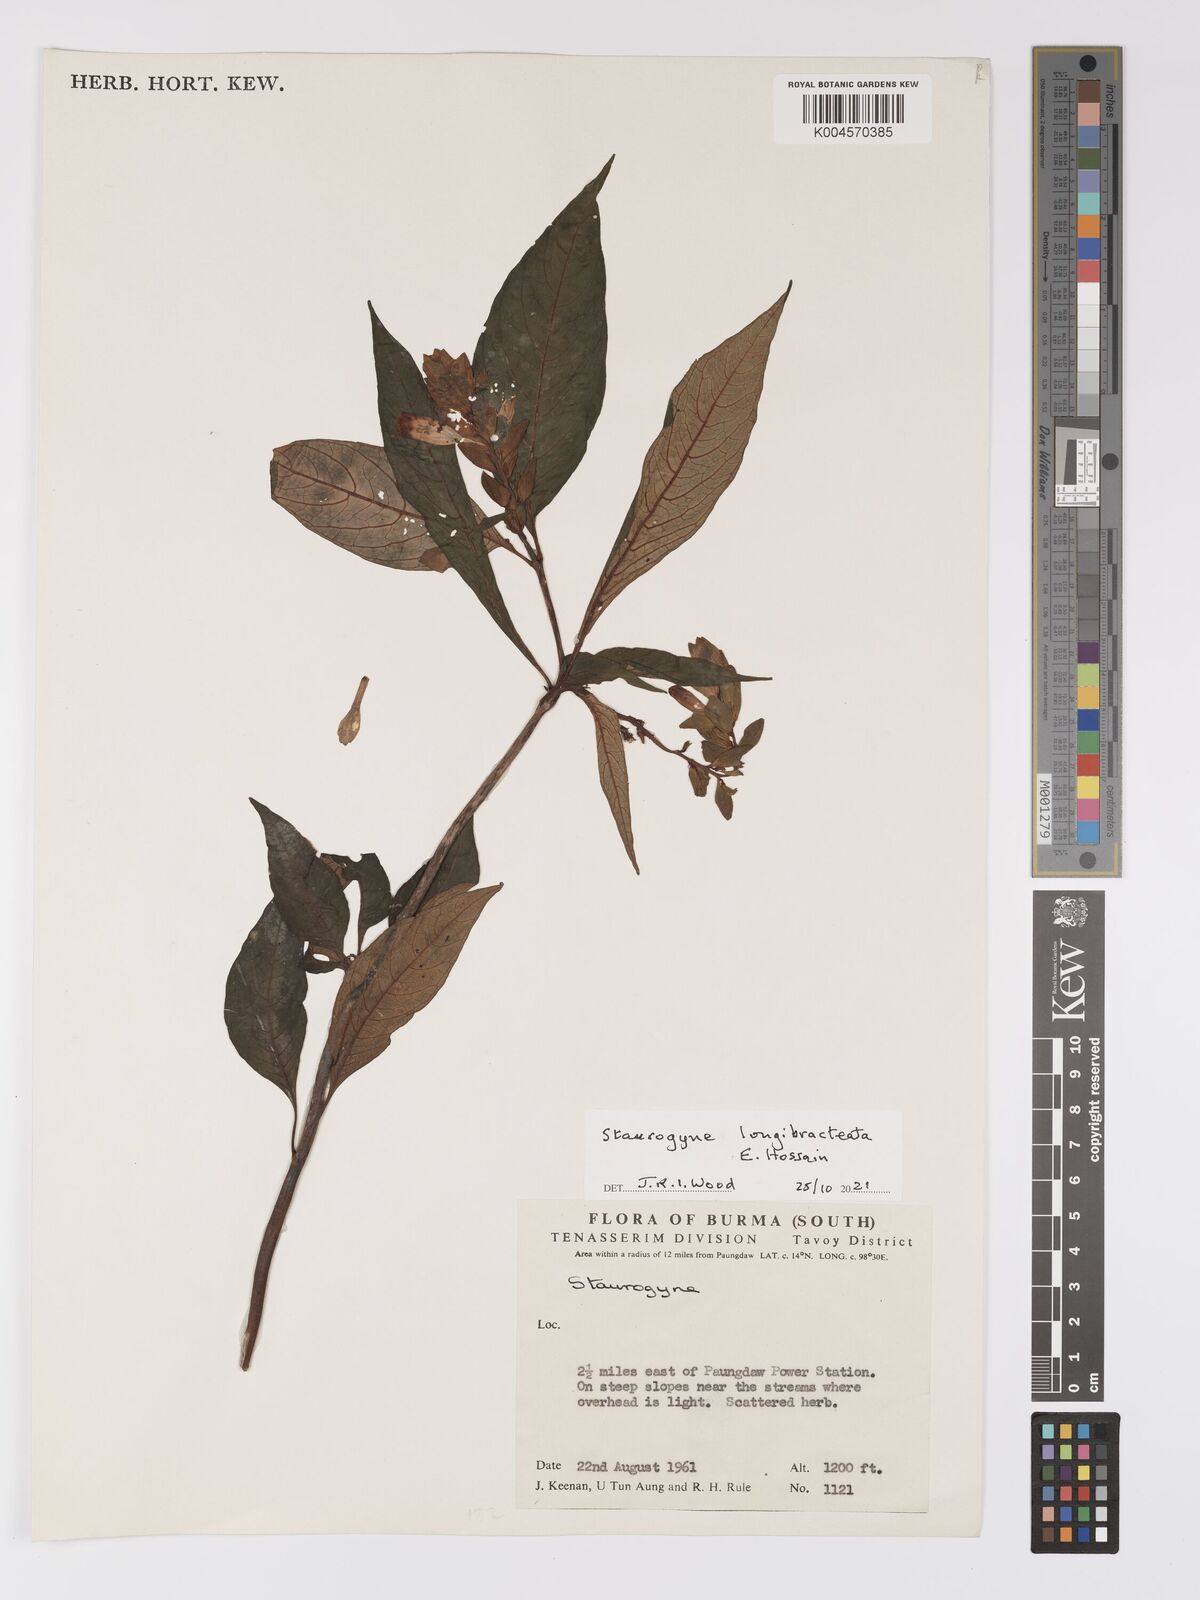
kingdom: Plantae
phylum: Tracheophyta
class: Magnoliopsida
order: Lamiales
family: Acanthaceae
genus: Staurogyne
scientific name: Staurogyne longibracteata
